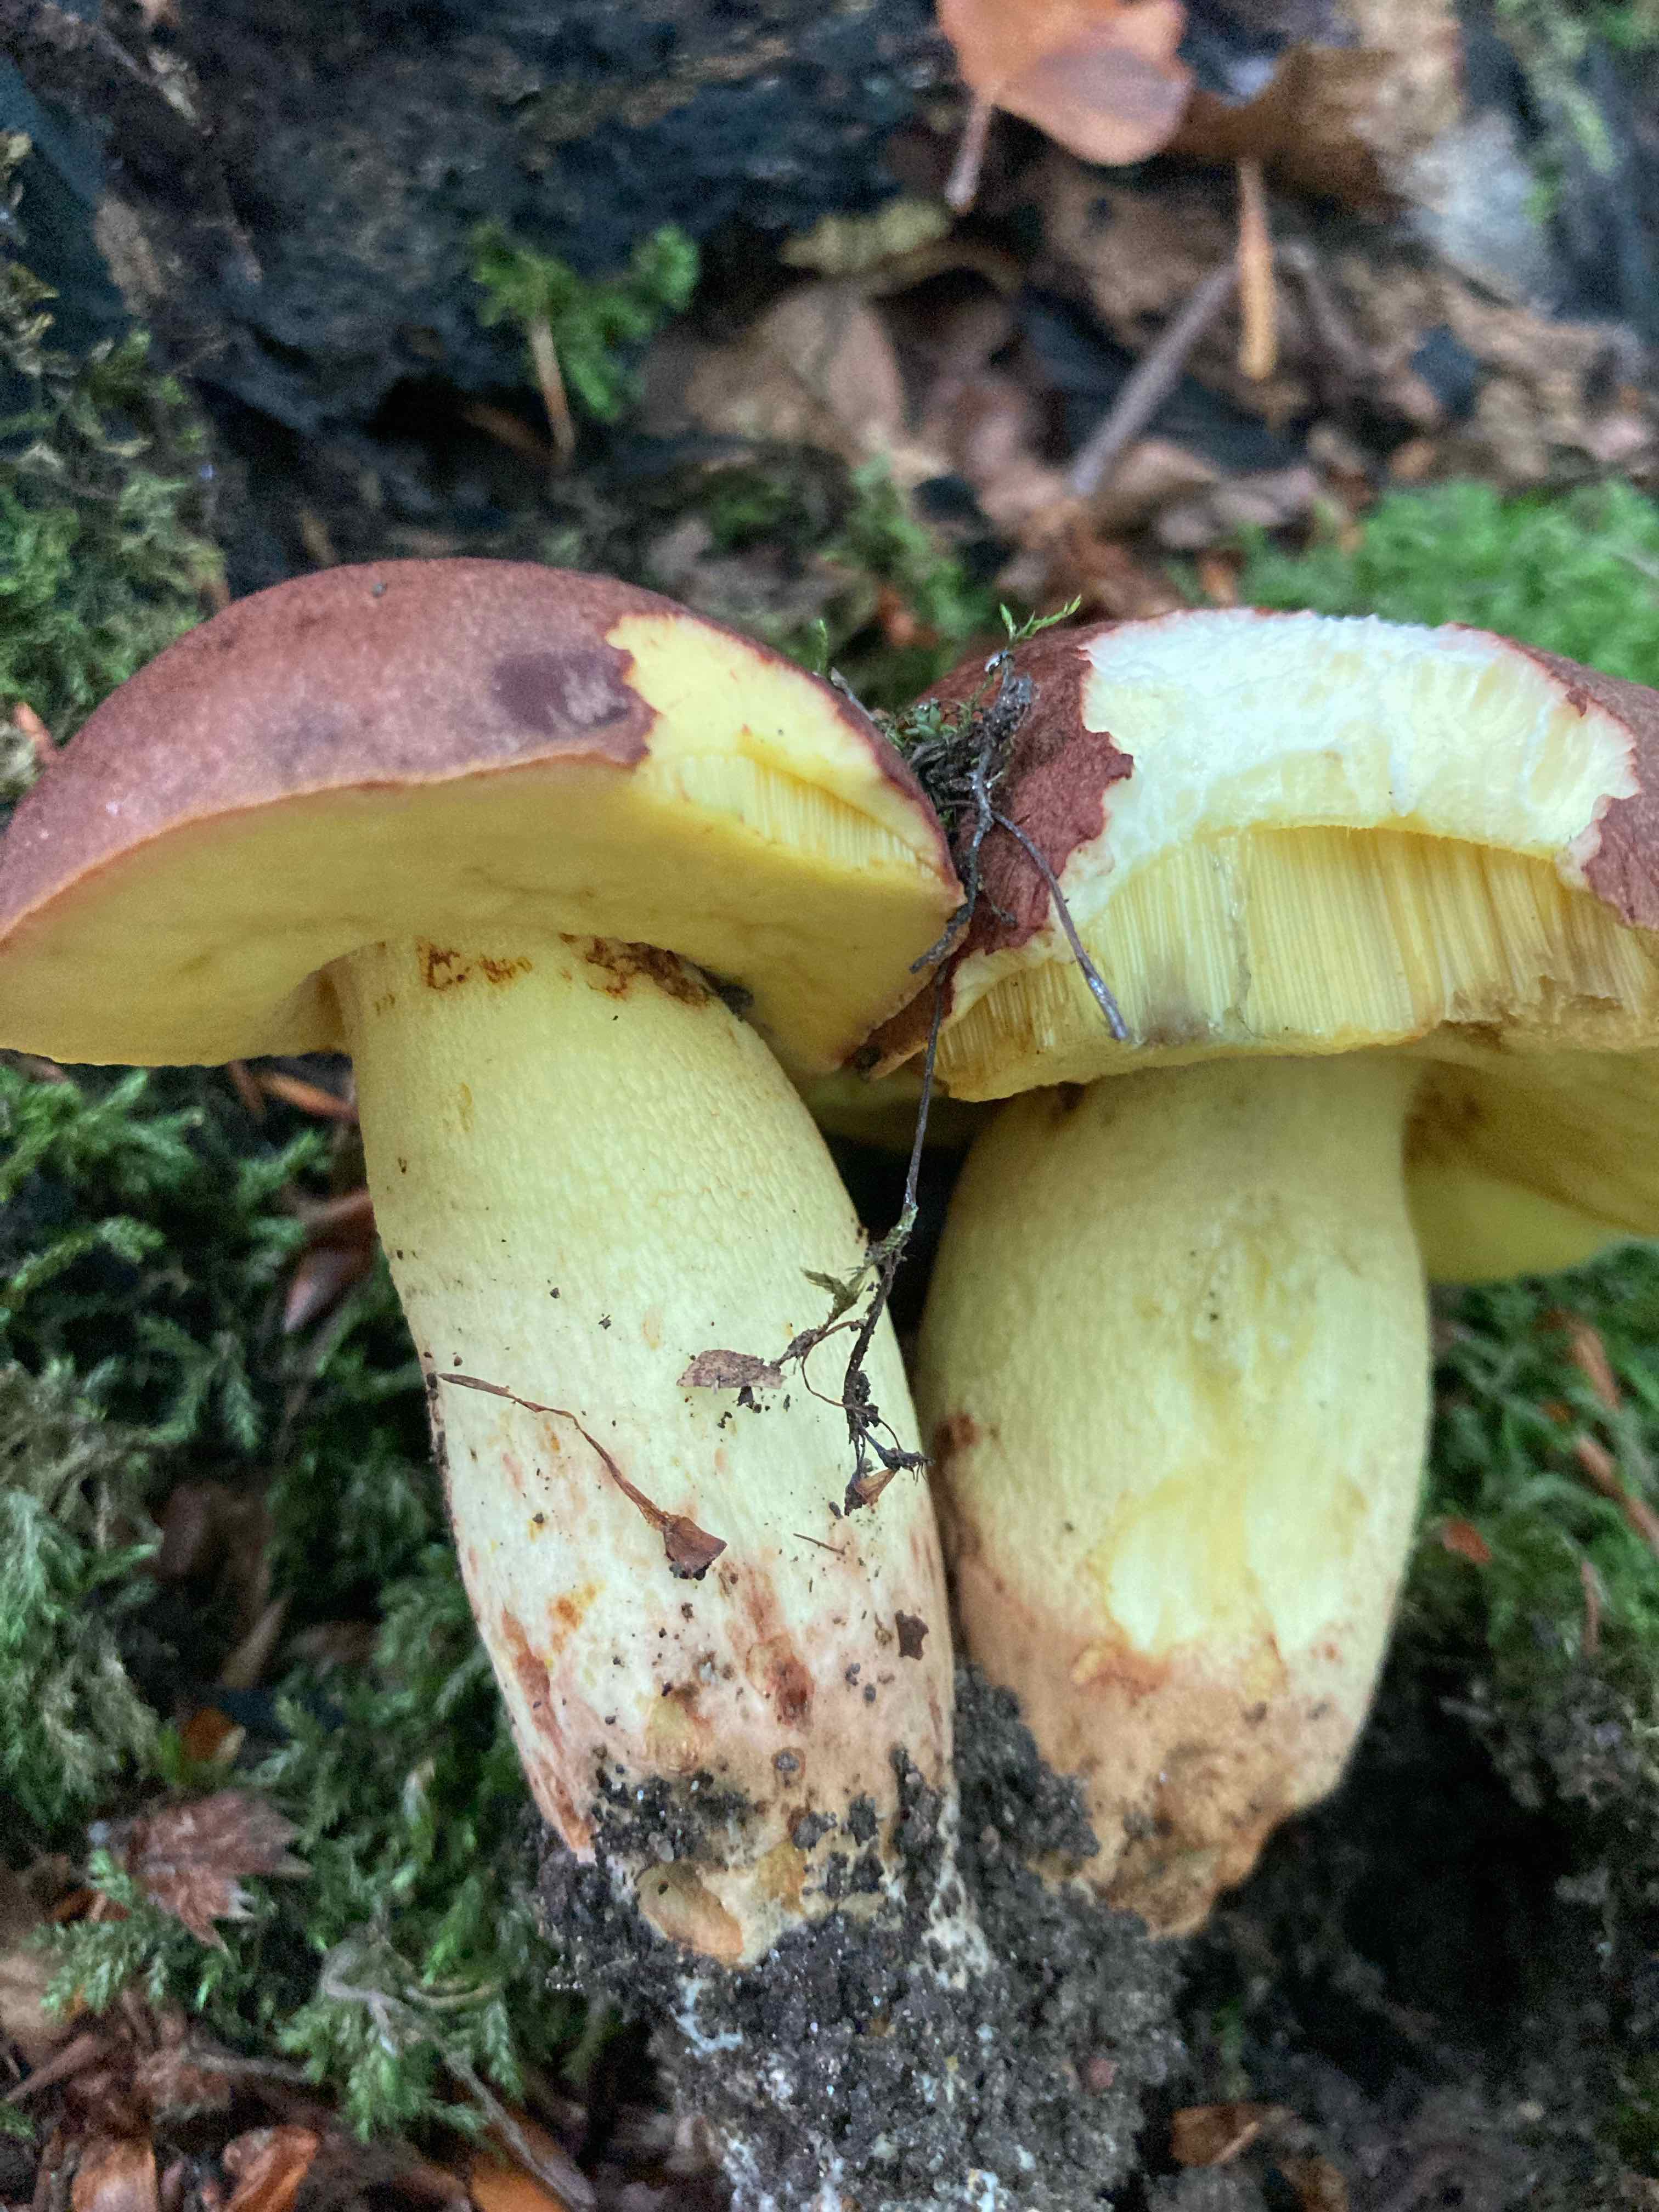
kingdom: Fungi
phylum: Basidiomycota
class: Agaricomycetes
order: Boletales
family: Boletaceae
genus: Butyriboletus
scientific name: Butyriboletus appendiculatus
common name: tenstokket rørhat
